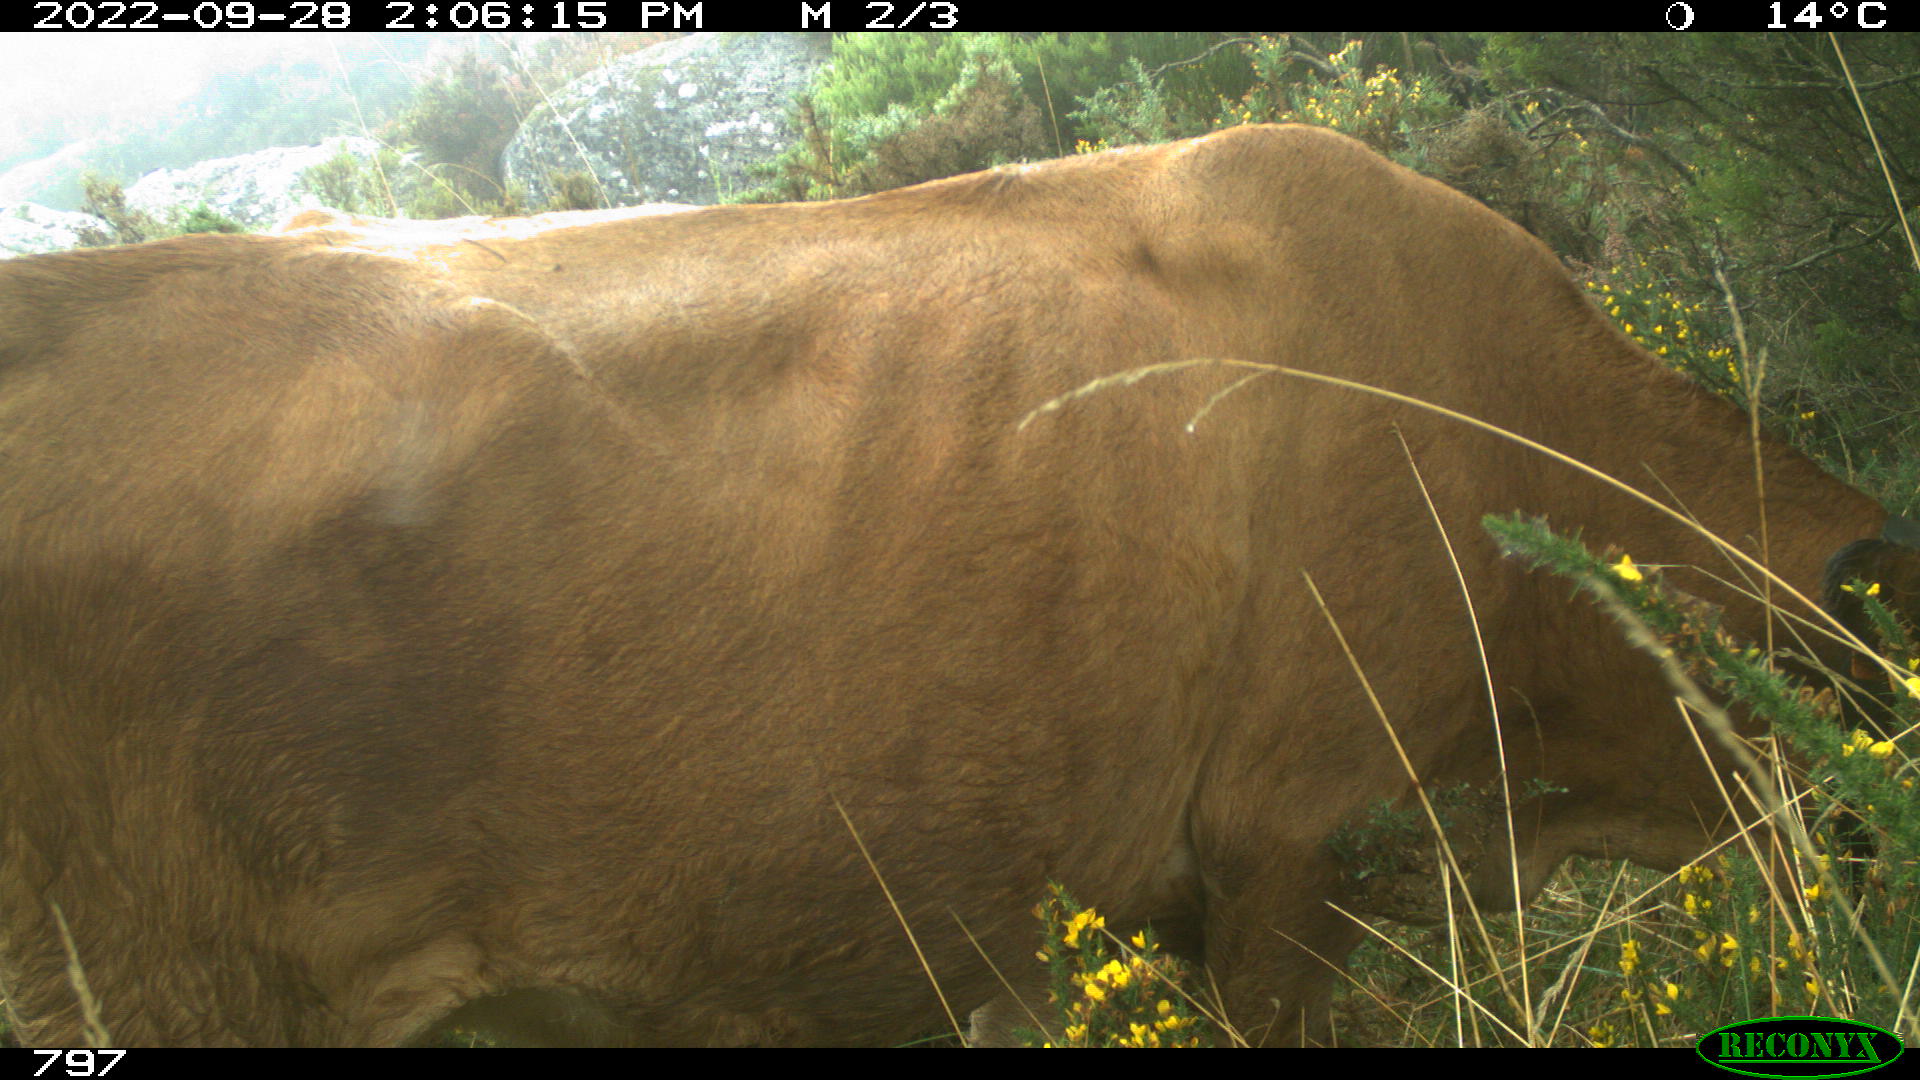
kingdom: Animalia
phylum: Chordata
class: Mammalia
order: Artiodactyla
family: Bovidae
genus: Bos
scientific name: Bos taurus
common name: Domesticated cattle
